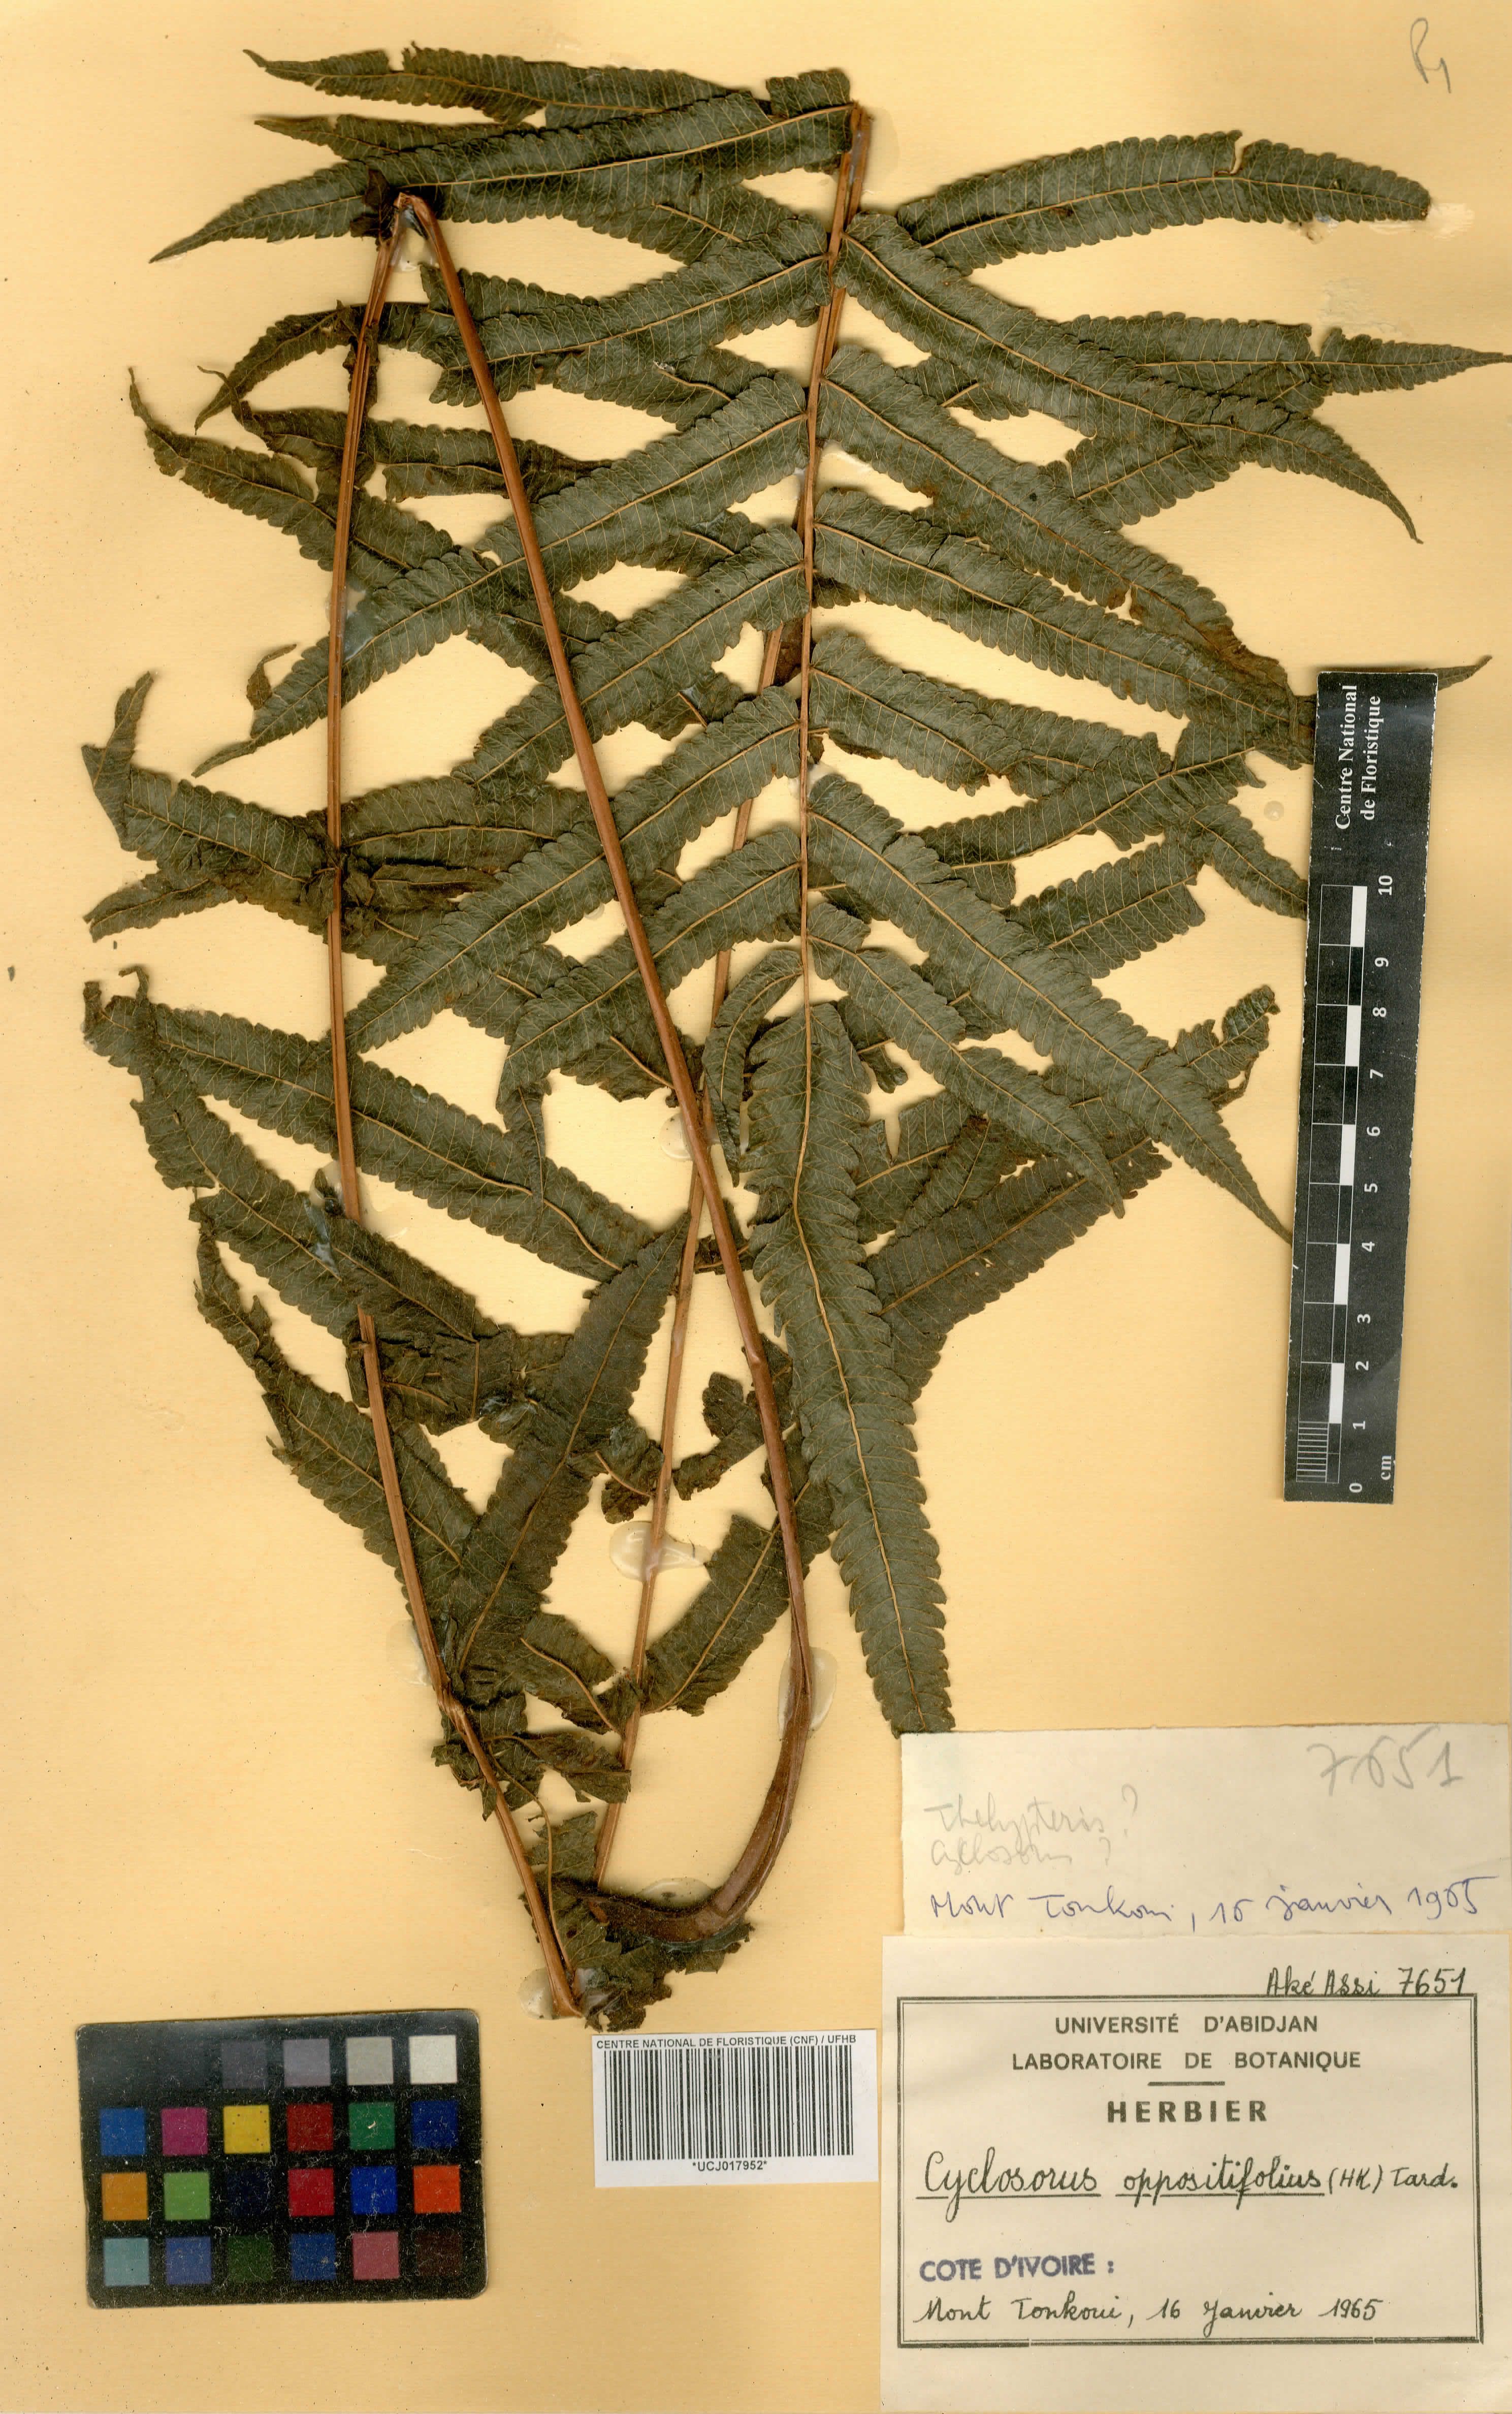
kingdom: Plantae
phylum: Tracheophyta
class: Polypodiopsida
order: Polypodiales
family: Thelypteridaceae
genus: Menisorus
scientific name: Menisorus oppositifolius
